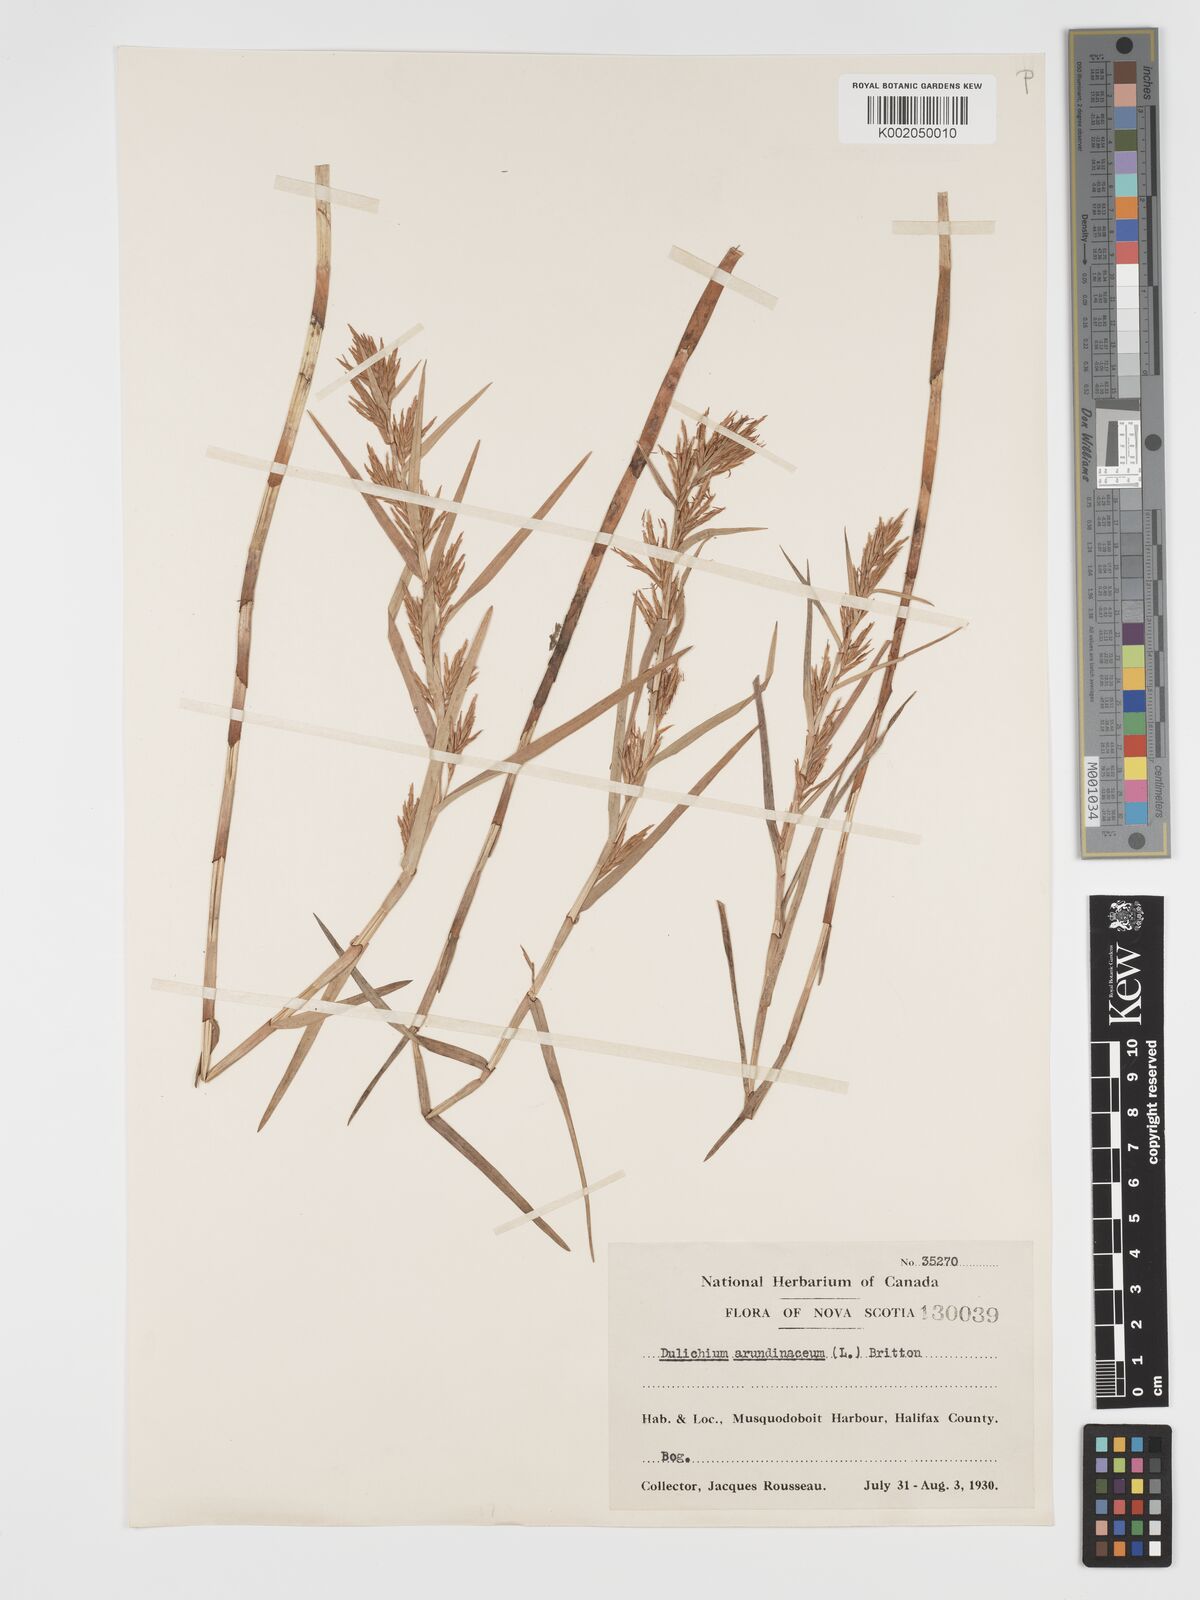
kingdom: Plantae
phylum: Tracheophyta
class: Liliopsida
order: Poales
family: Cyperaceae
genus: Dulichium
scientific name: Dulichium arundinaceum
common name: Three-way sedge
